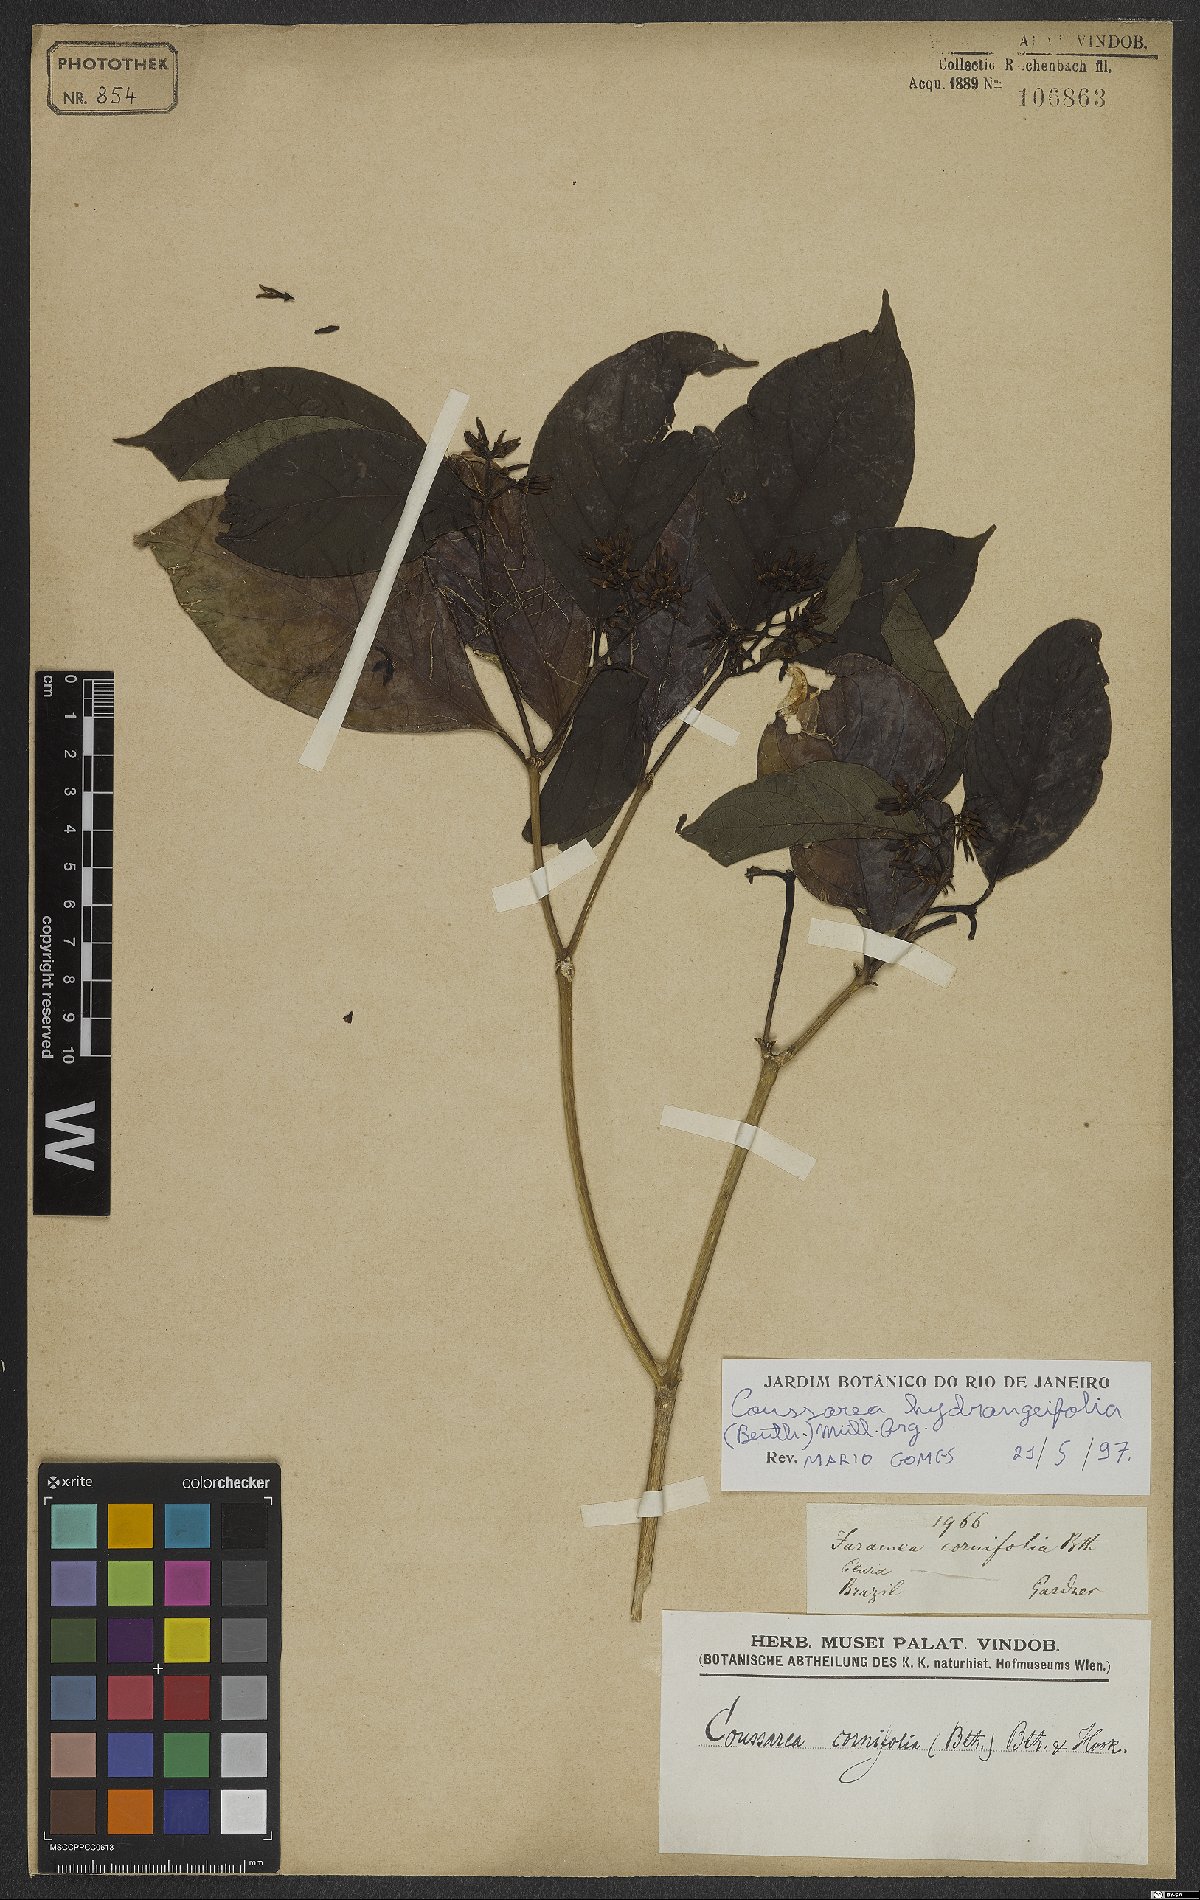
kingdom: Plantae
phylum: Tracheophyta
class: Magnoliopsida
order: Gentianales
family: Rubiaceae
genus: Coussarea
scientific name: Coussarea hydrangeifolia
